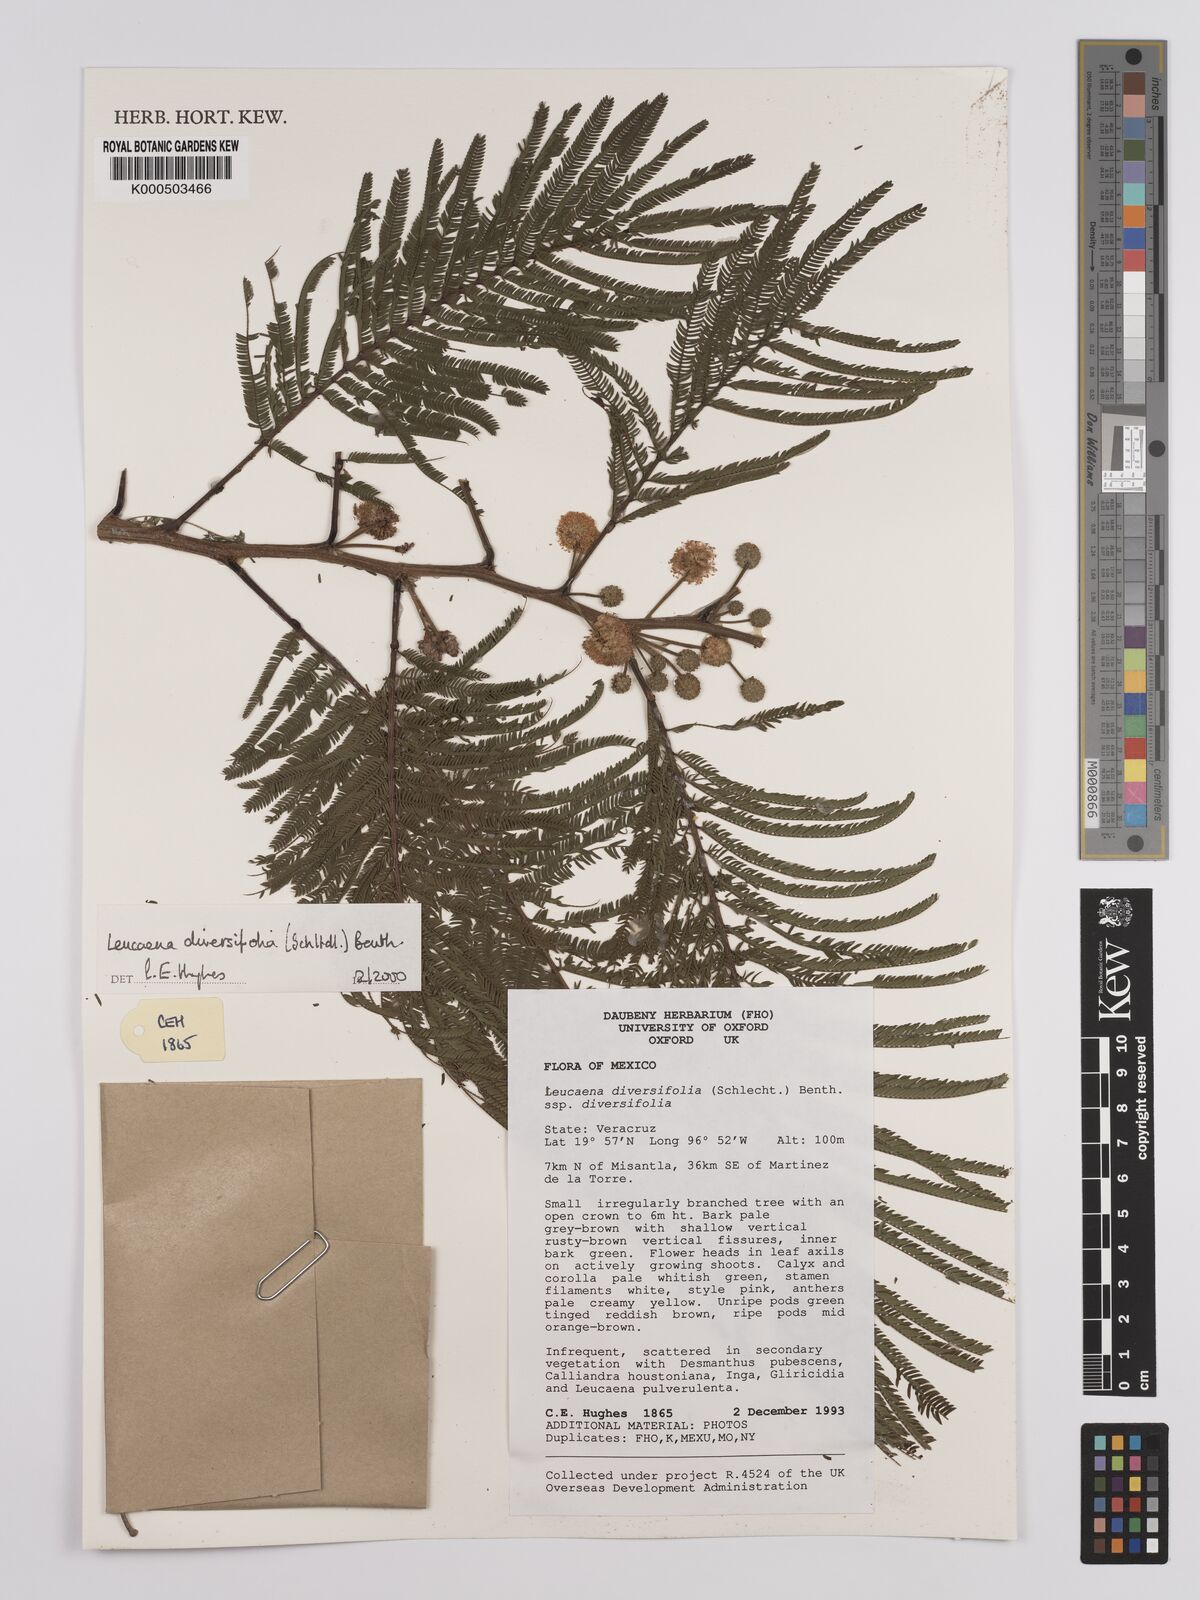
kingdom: Plantae
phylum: Tracheophyta
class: Magnoliopsida
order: Fabales
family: Fabaceae
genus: Leucaena
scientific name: Leucaena diversifolia
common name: Red leucaena
